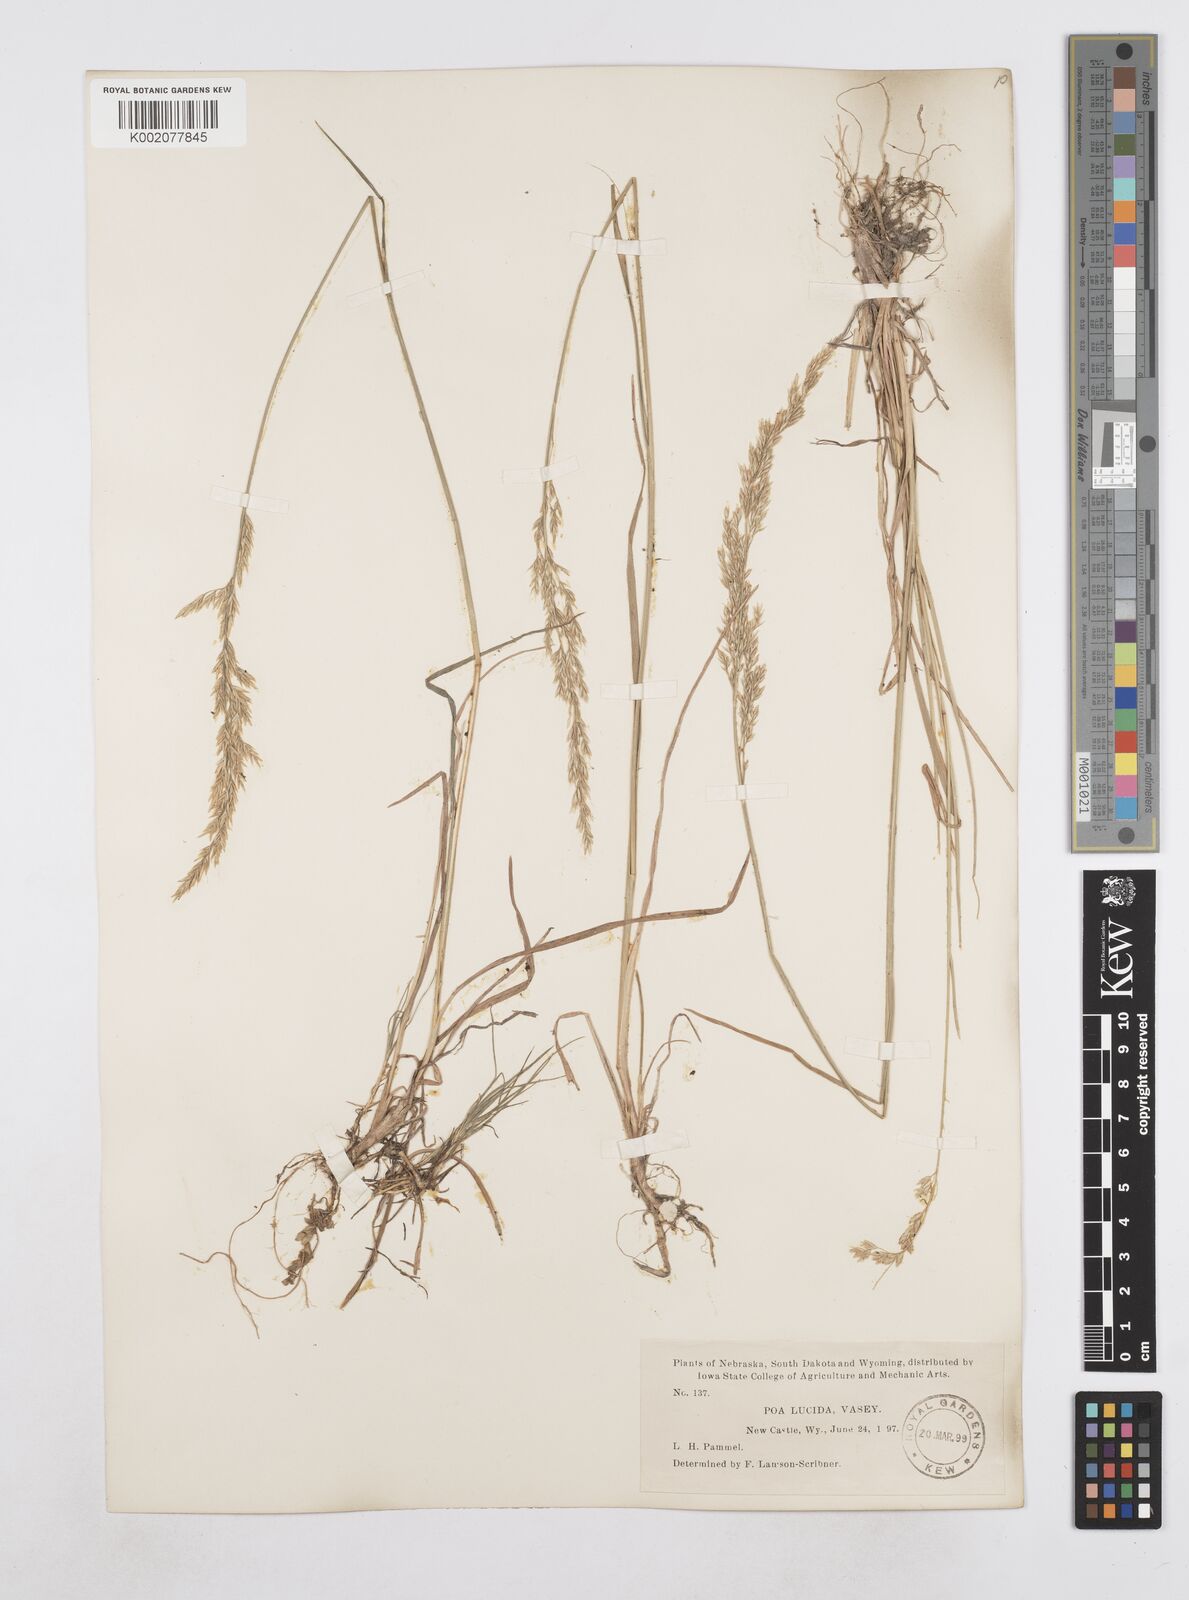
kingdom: Plantae
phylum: Tracheophyta
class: Liliopsida
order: Poales
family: Poaceae
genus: Poa
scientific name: Poa secunda
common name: Sandberg bluegrass
